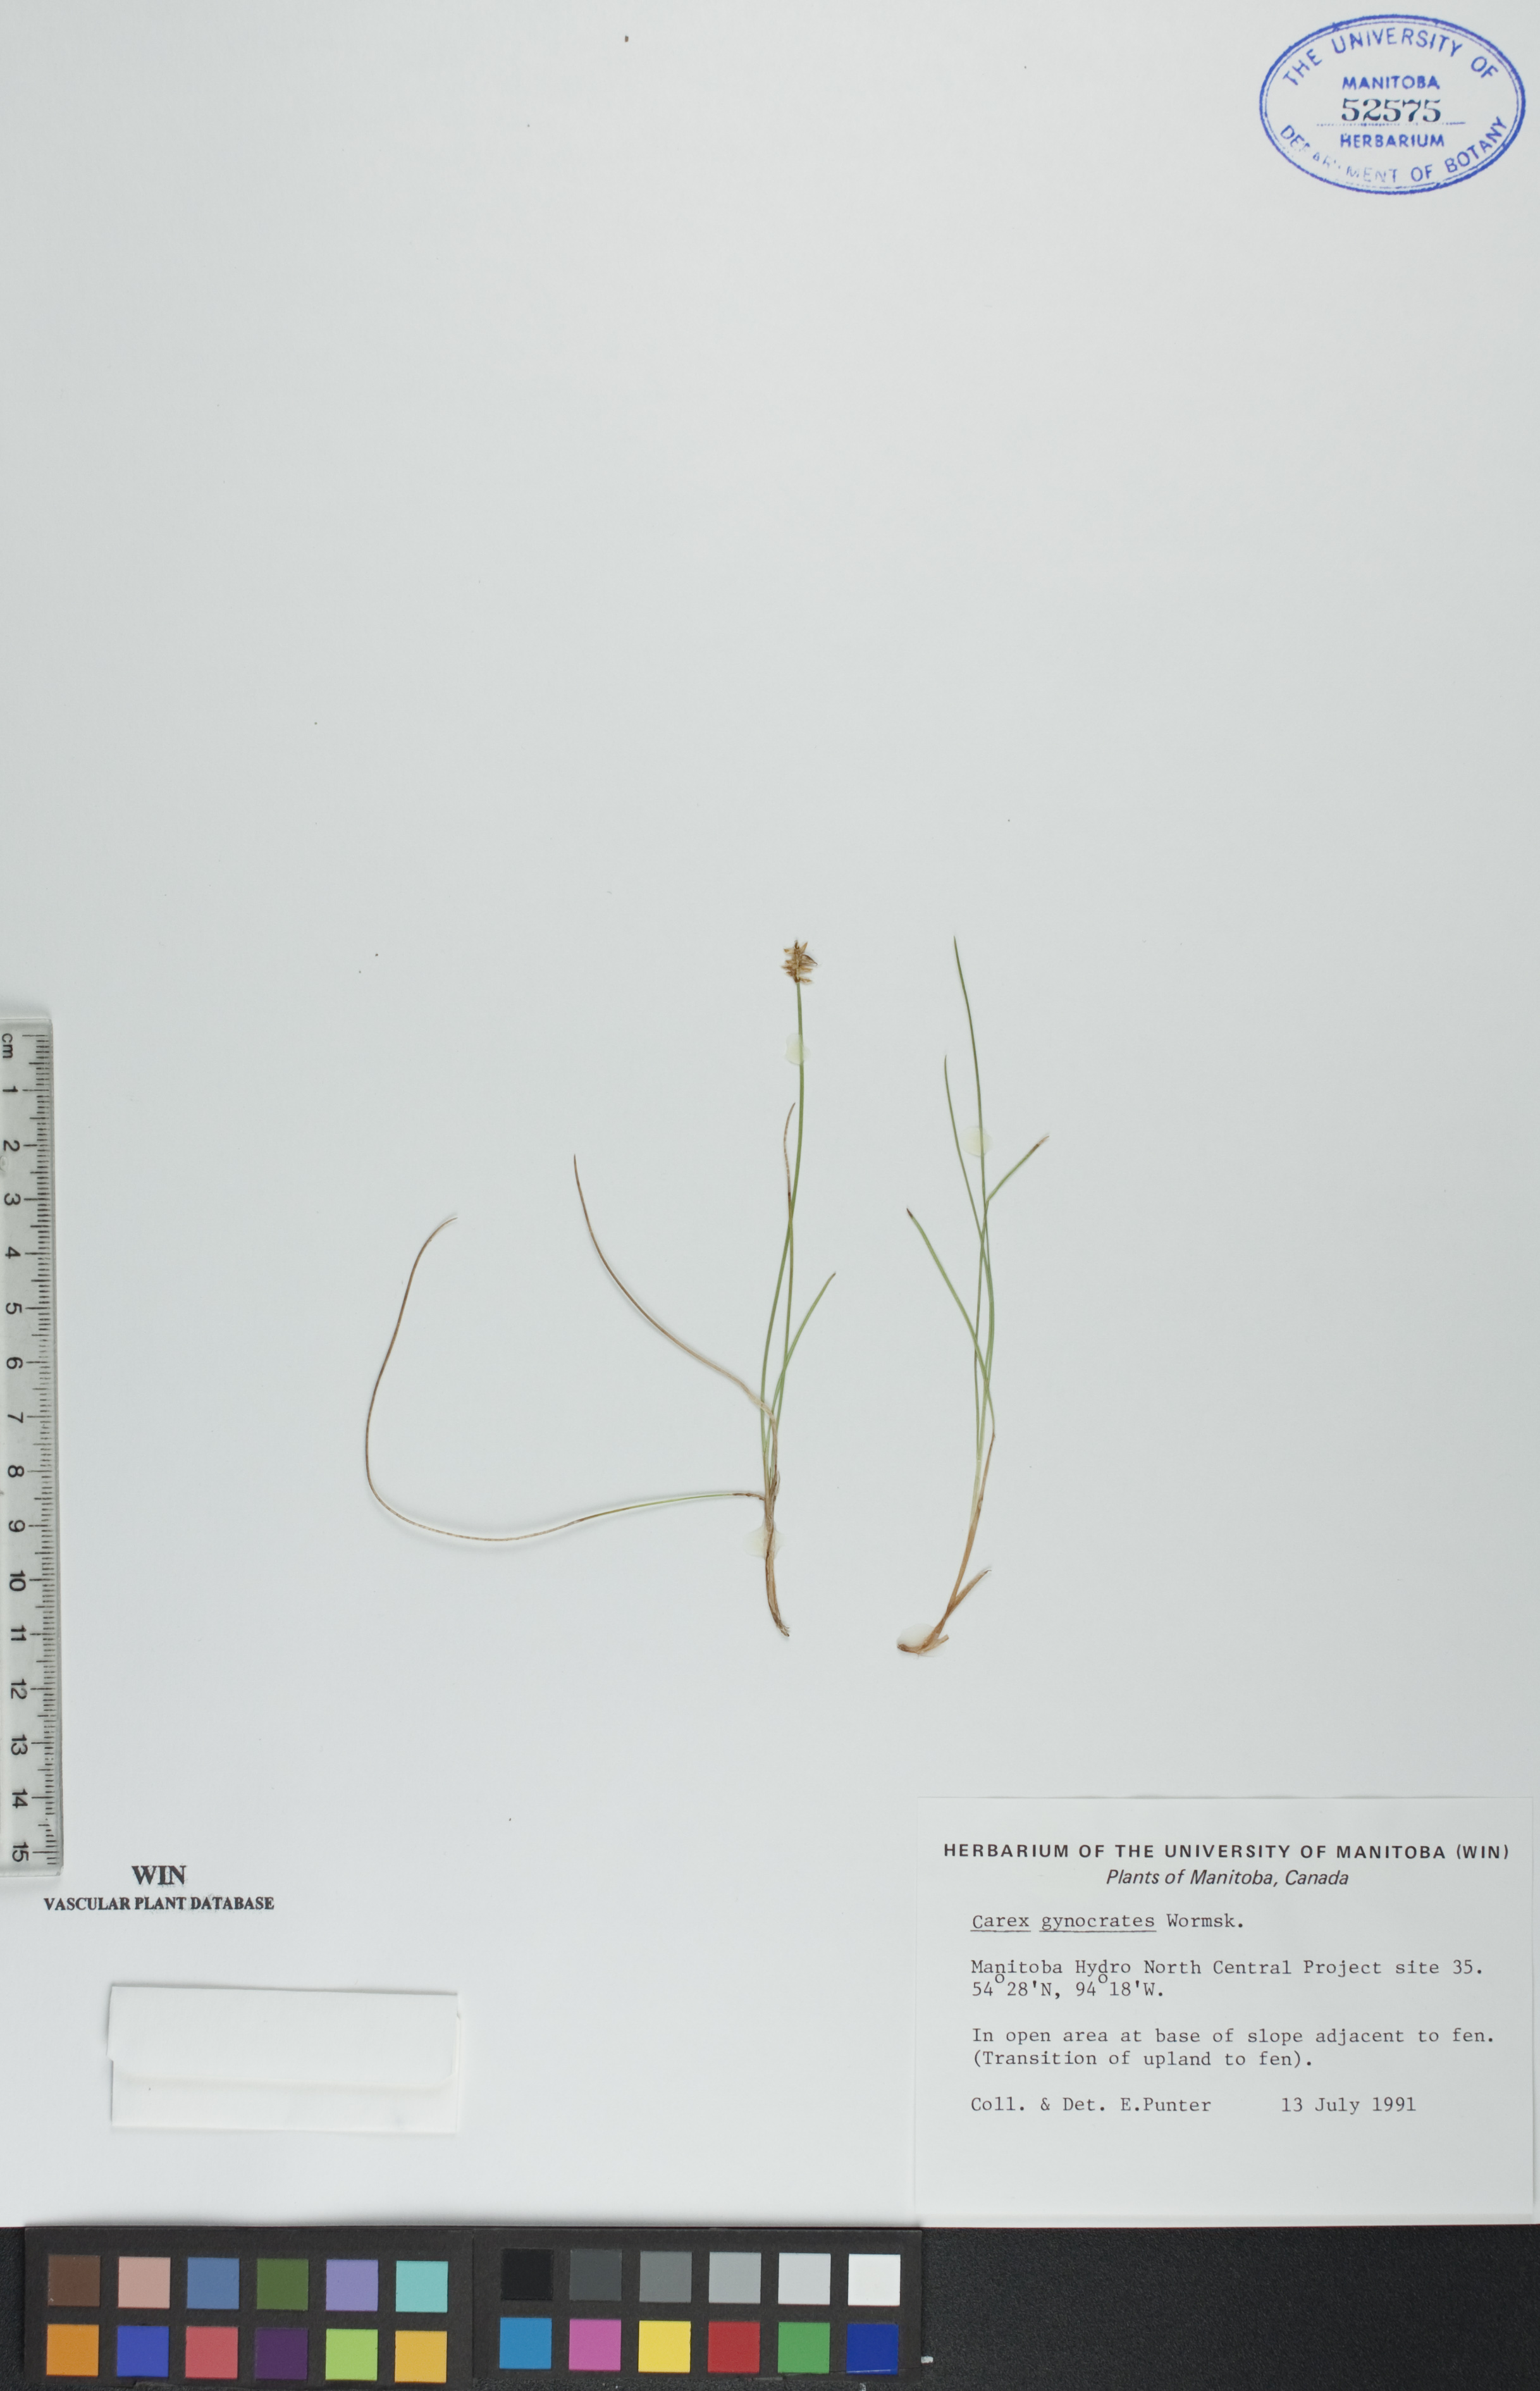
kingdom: Plantae
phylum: Tracheophyta
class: Liliopsida
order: Poales
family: Cyperaceae
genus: Carex
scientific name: Carex nardina
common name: Nard sedge
